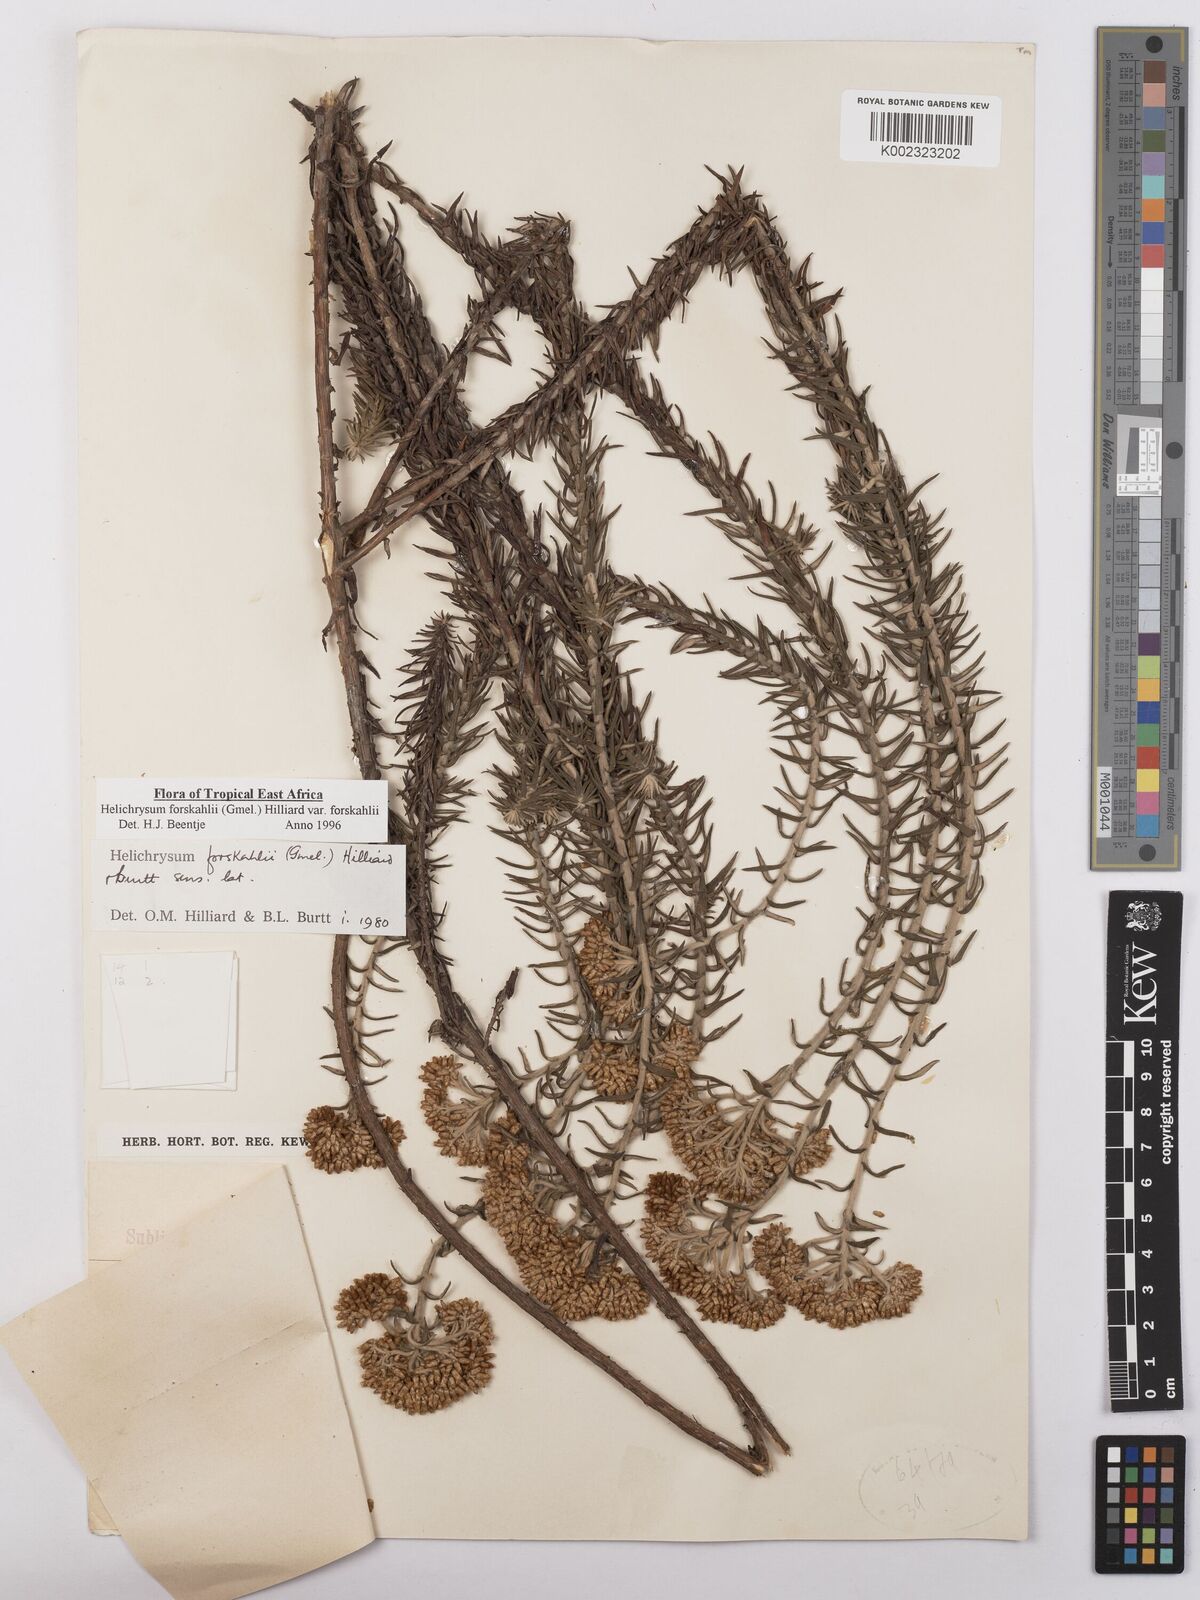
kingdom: Plantae
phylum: Tracheophyta
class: Magnoliopsida
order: Asterales
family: Asteraceae
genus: Helichrysum
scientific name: Helichrysum forskahlii
